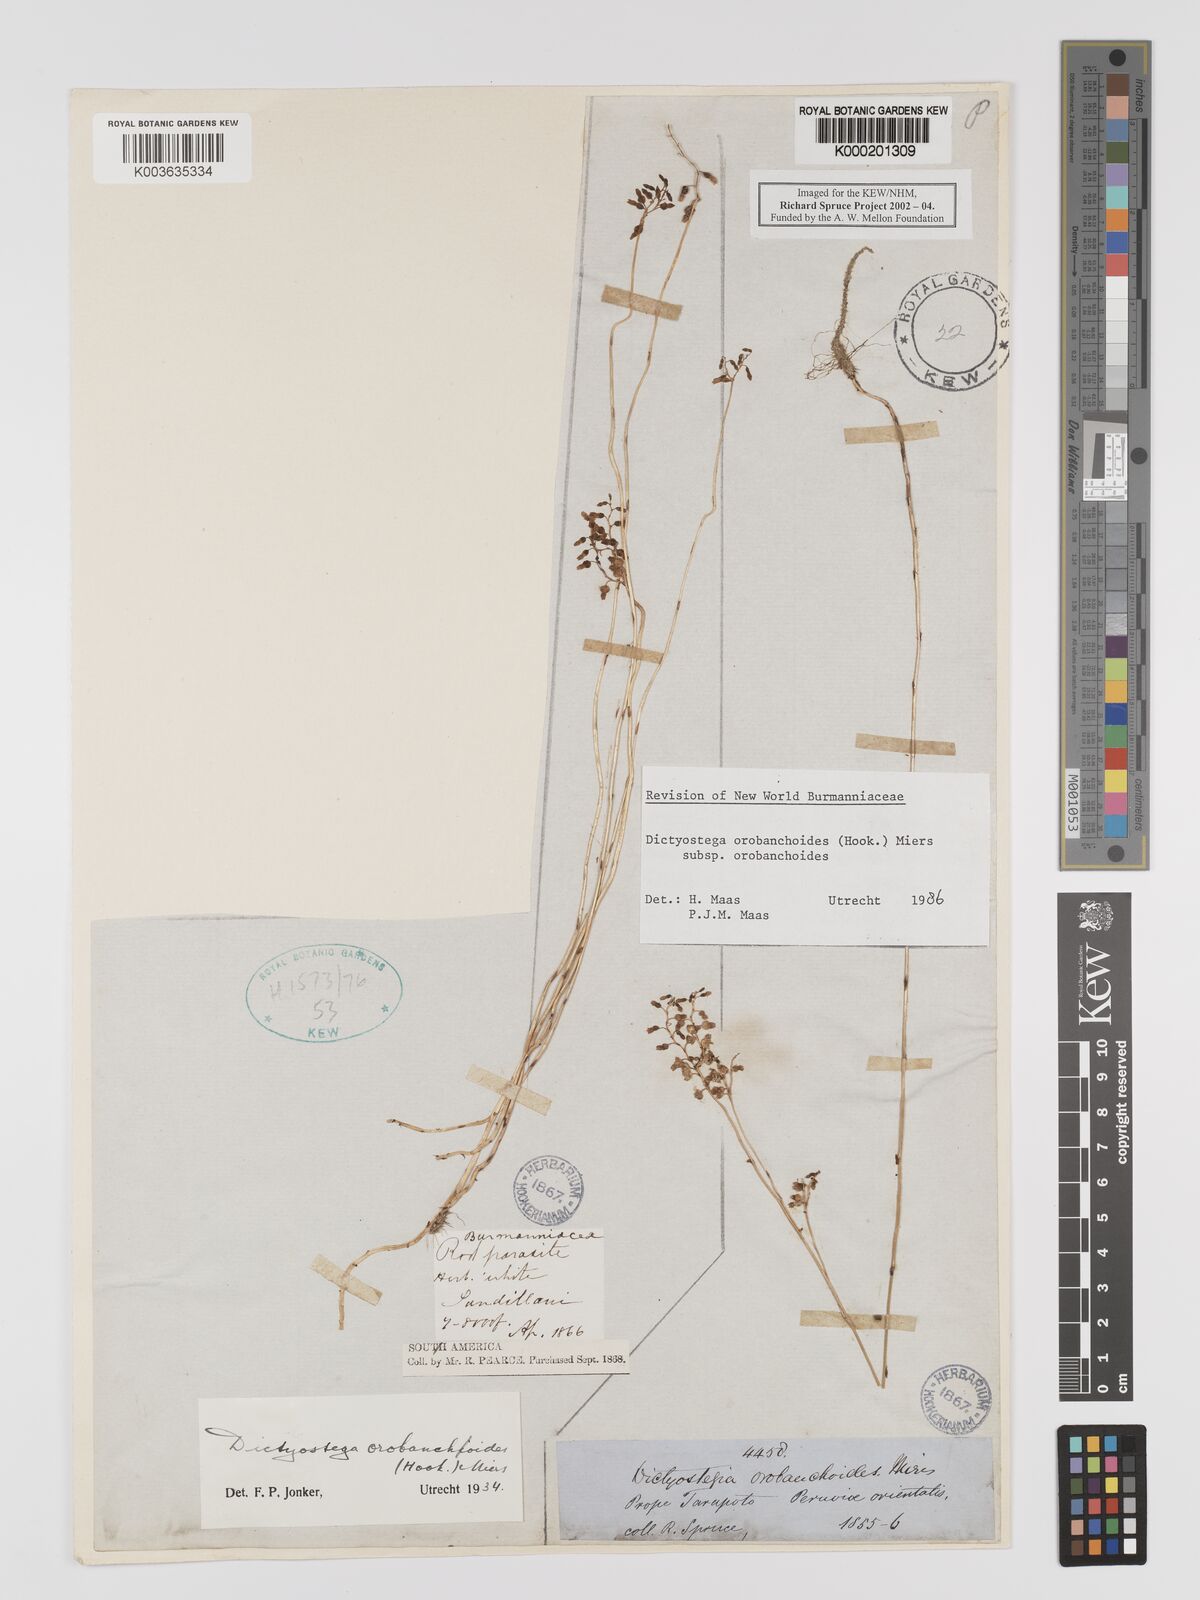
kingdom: Plantae
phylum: Tracheophyta
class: Liliopsida
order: Dioscoreales
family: Burmanniaceae
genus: Dictyostega
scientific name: Dictyostega orobanchoides
